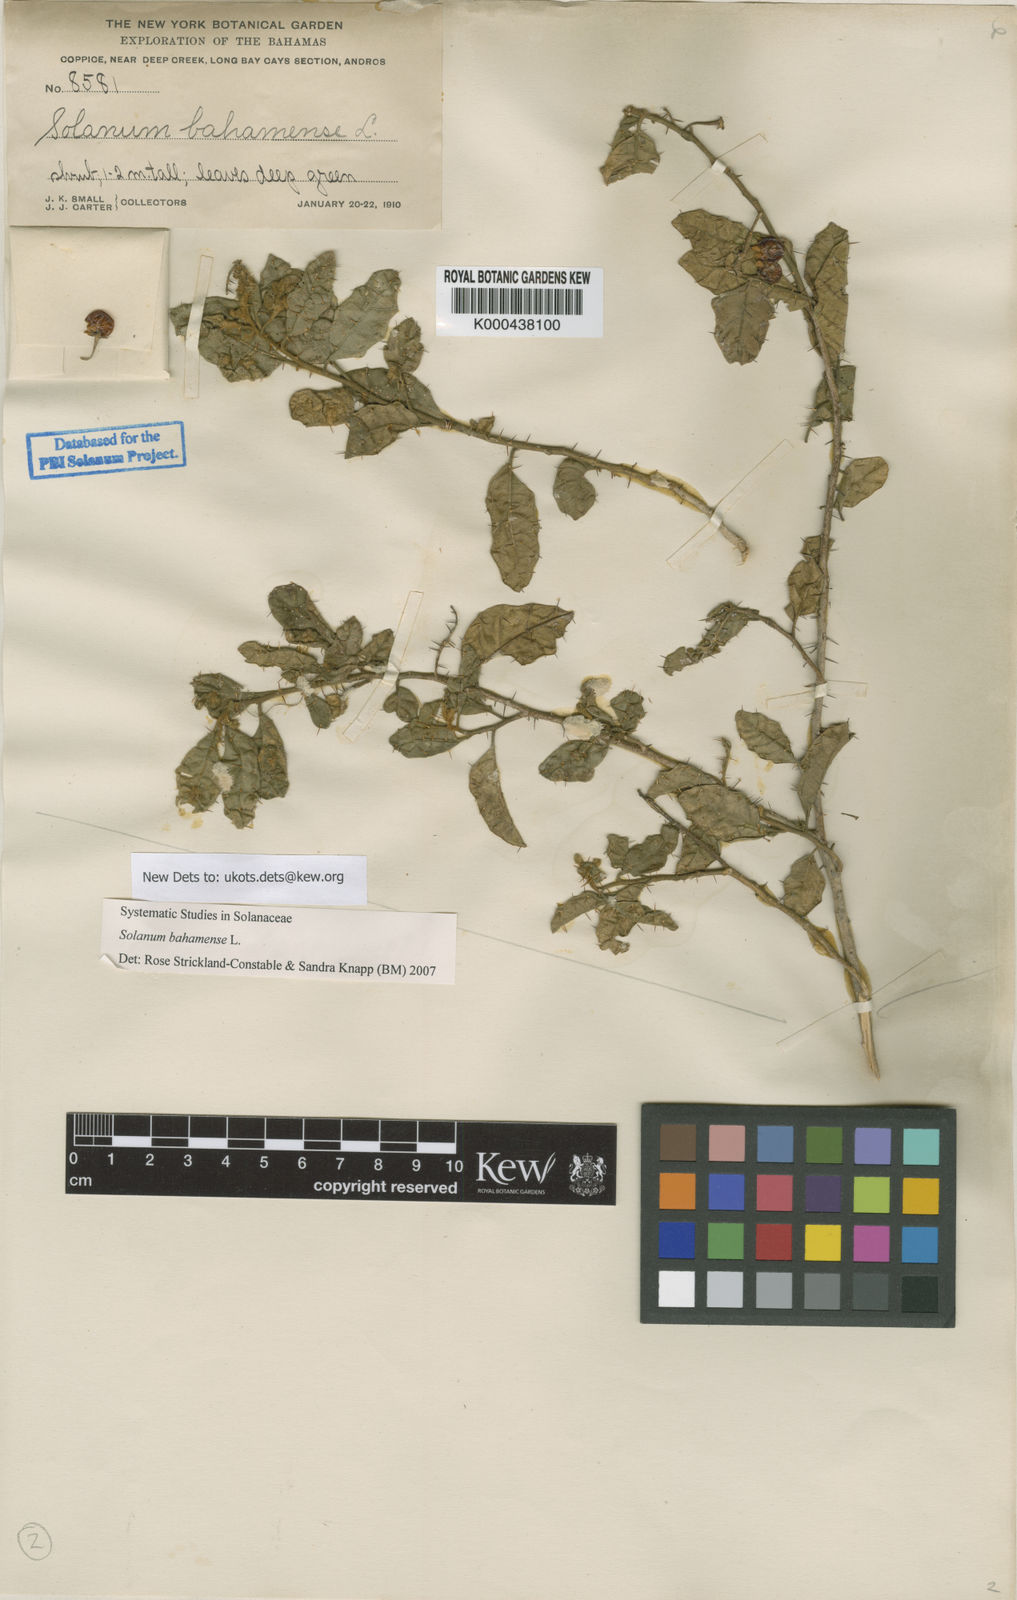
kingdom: Plantae
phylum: Tracheophyta
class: Magnoliopsida
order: Solanales
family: Solanaceae
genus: Solanum
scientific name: Solanum bahamense
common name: Canker-berry
